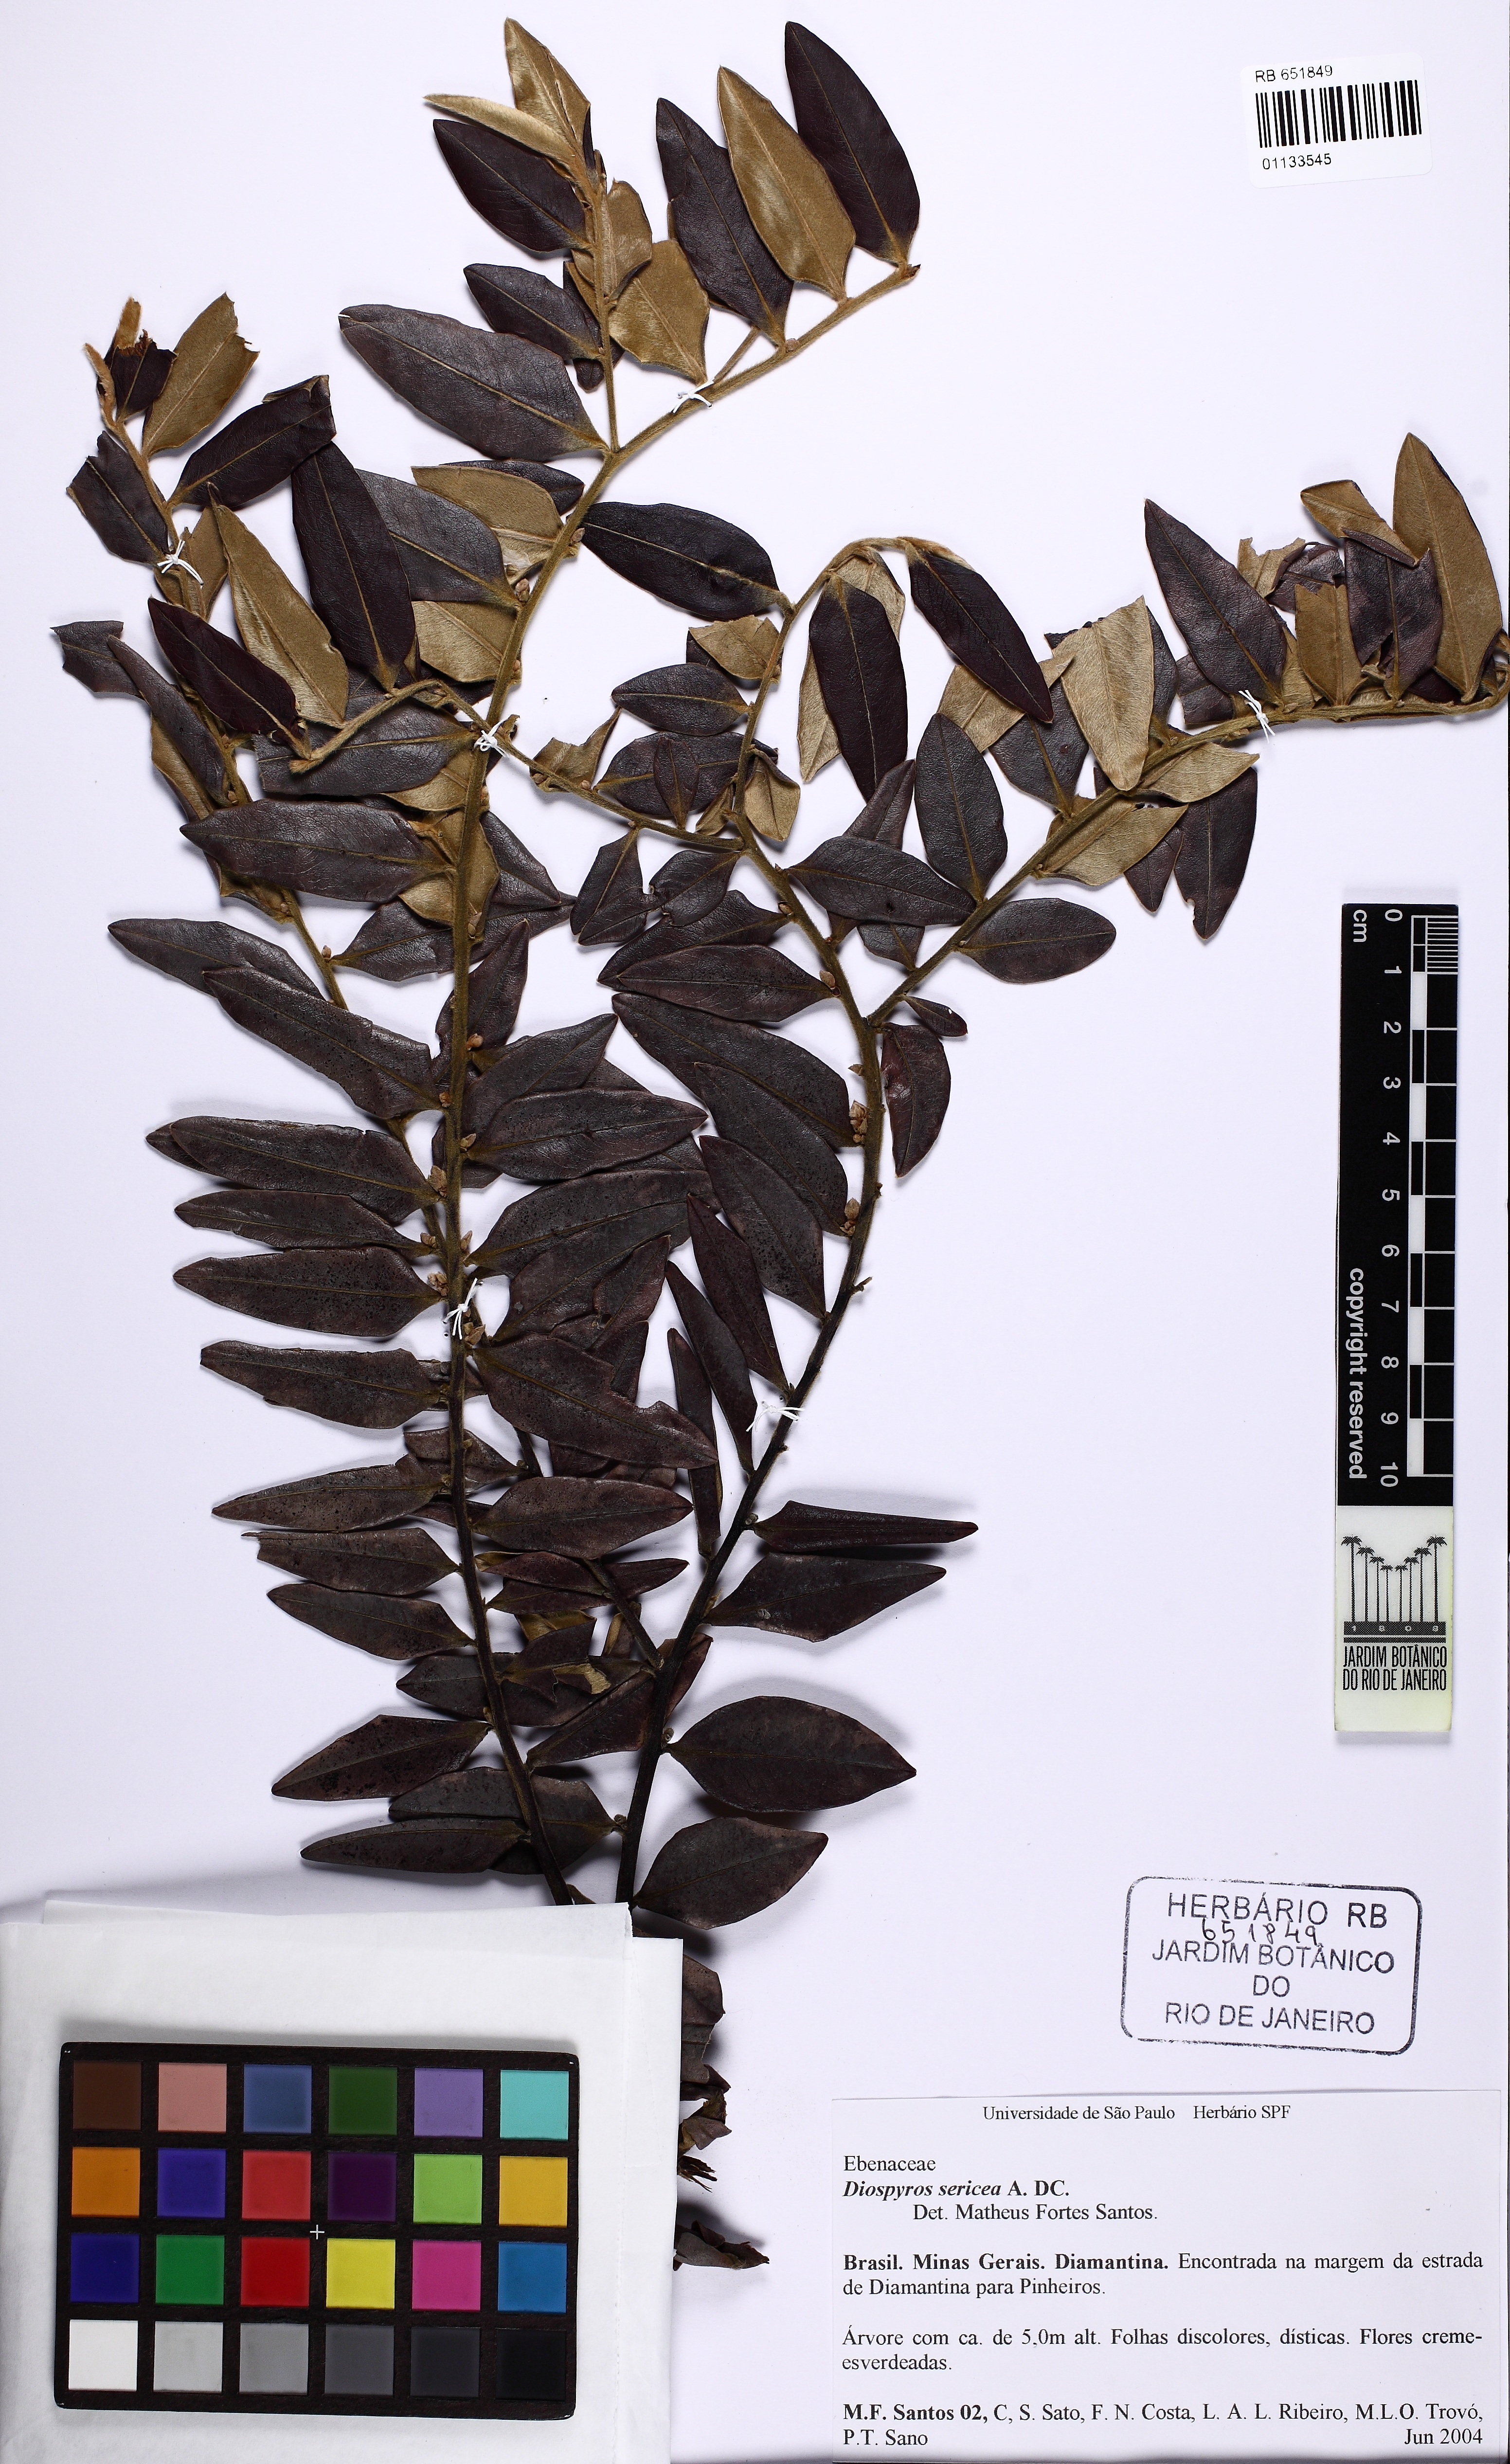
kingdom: Plantae
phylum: Tracheophyta
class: Magnoliopsida
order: Ericales
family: Ebenaceae
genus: Diospyros
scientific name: Diospyros sericea
